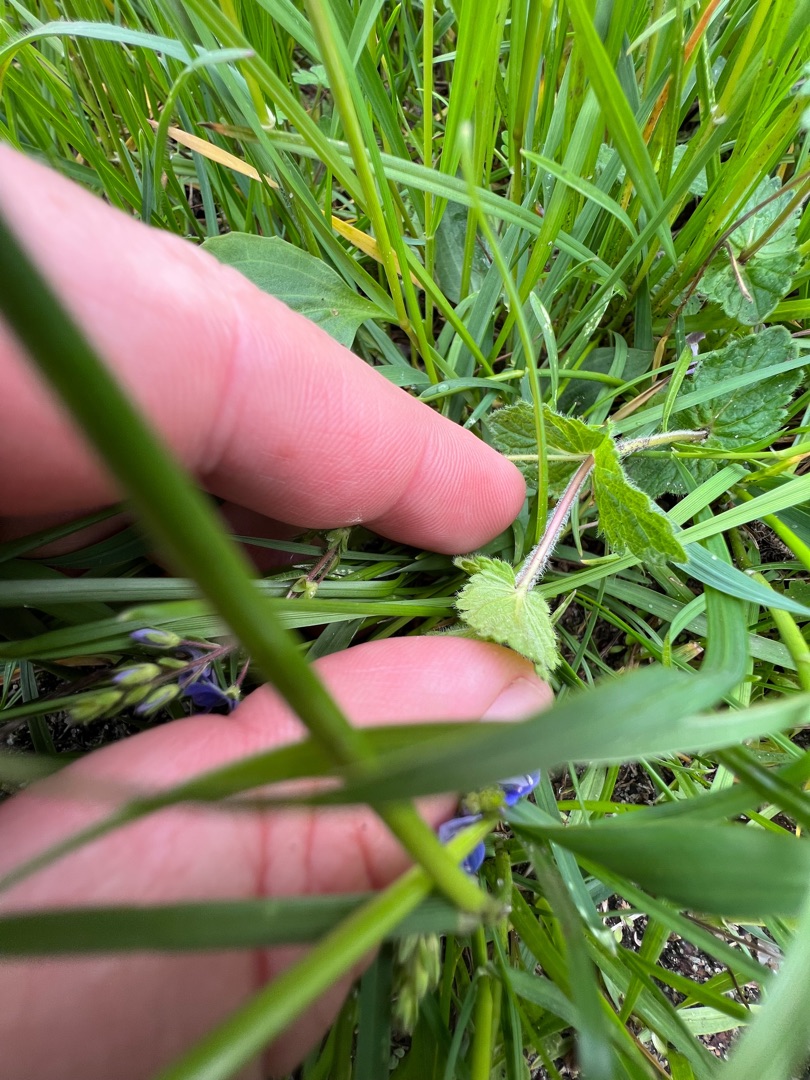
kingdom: Plantae
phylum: Tracheophyta
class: Magnoliopsida
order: Lamiales
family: Plantaginaceae
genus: Veronica
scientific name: Veronica chamaedrys
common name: Tveskægget ærenpris
